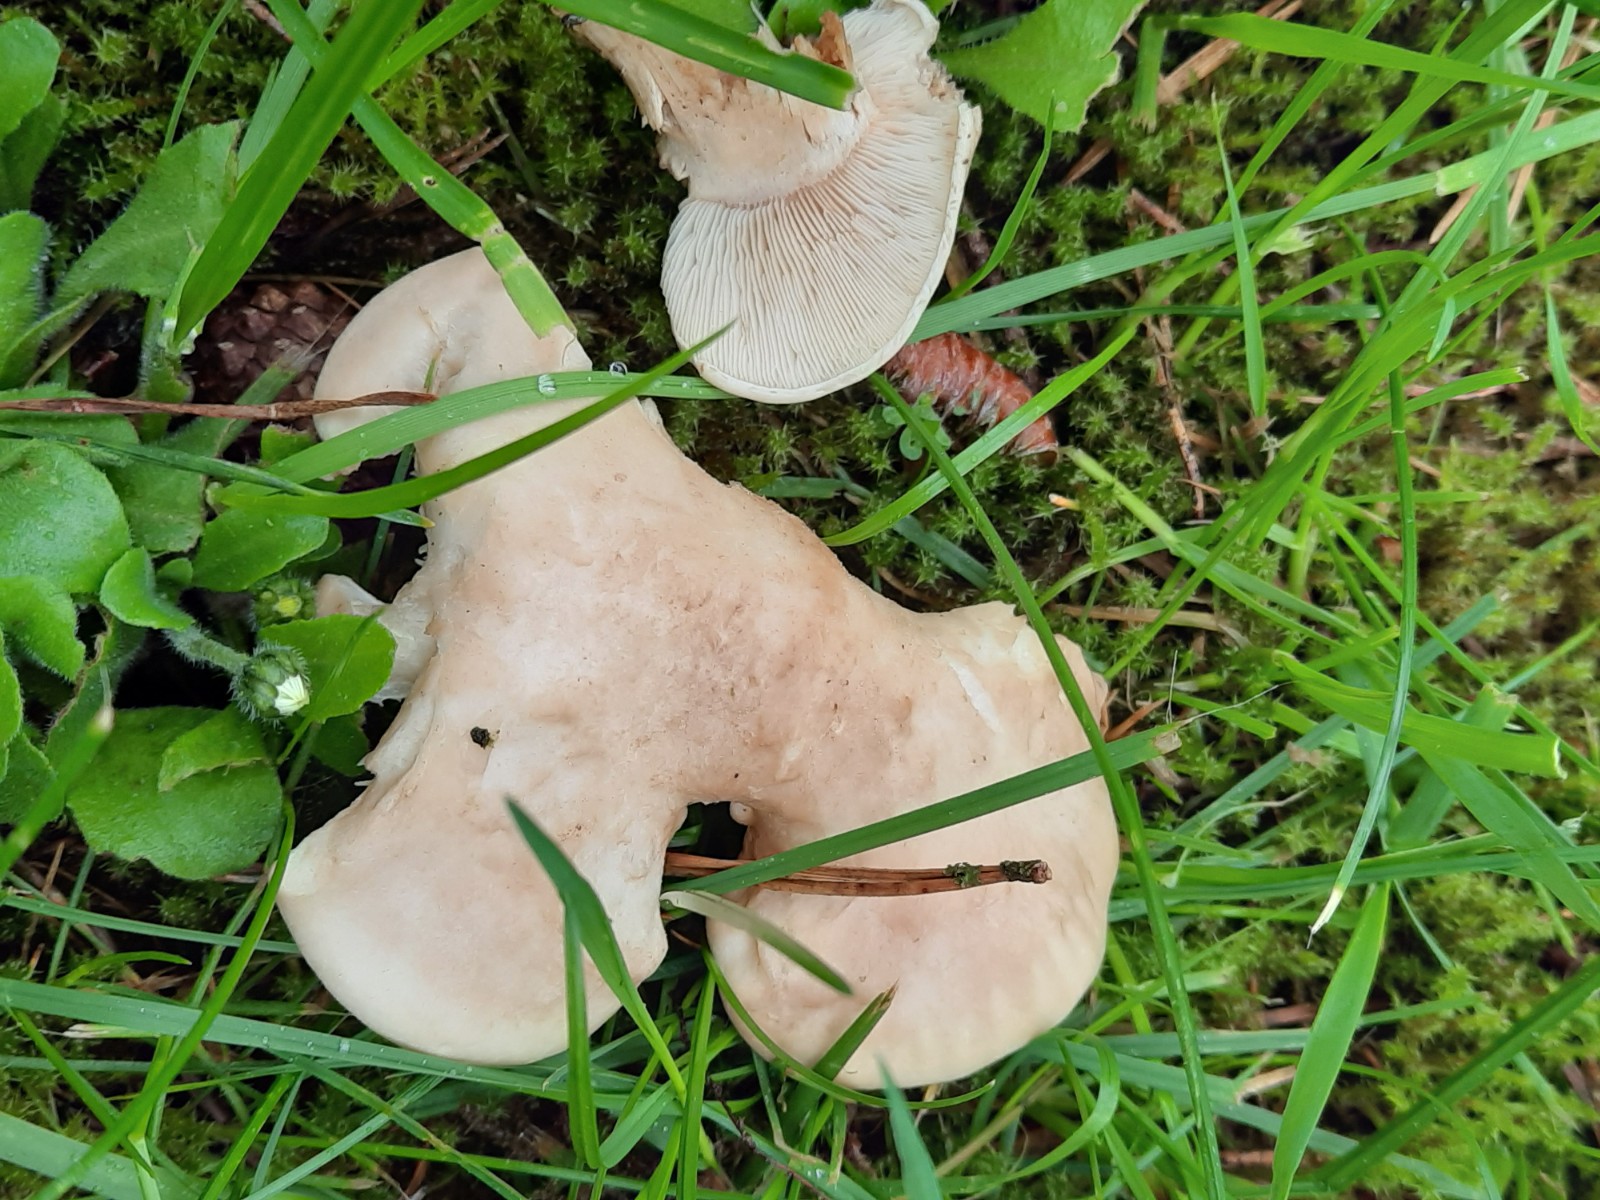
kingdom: Fungi
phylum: Basidiomycota
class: Agaricomycetes
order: Agaricales
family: Lyophyllaceae
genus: Calocybe
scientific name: Calocybe gambosa
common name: vårmusseron
